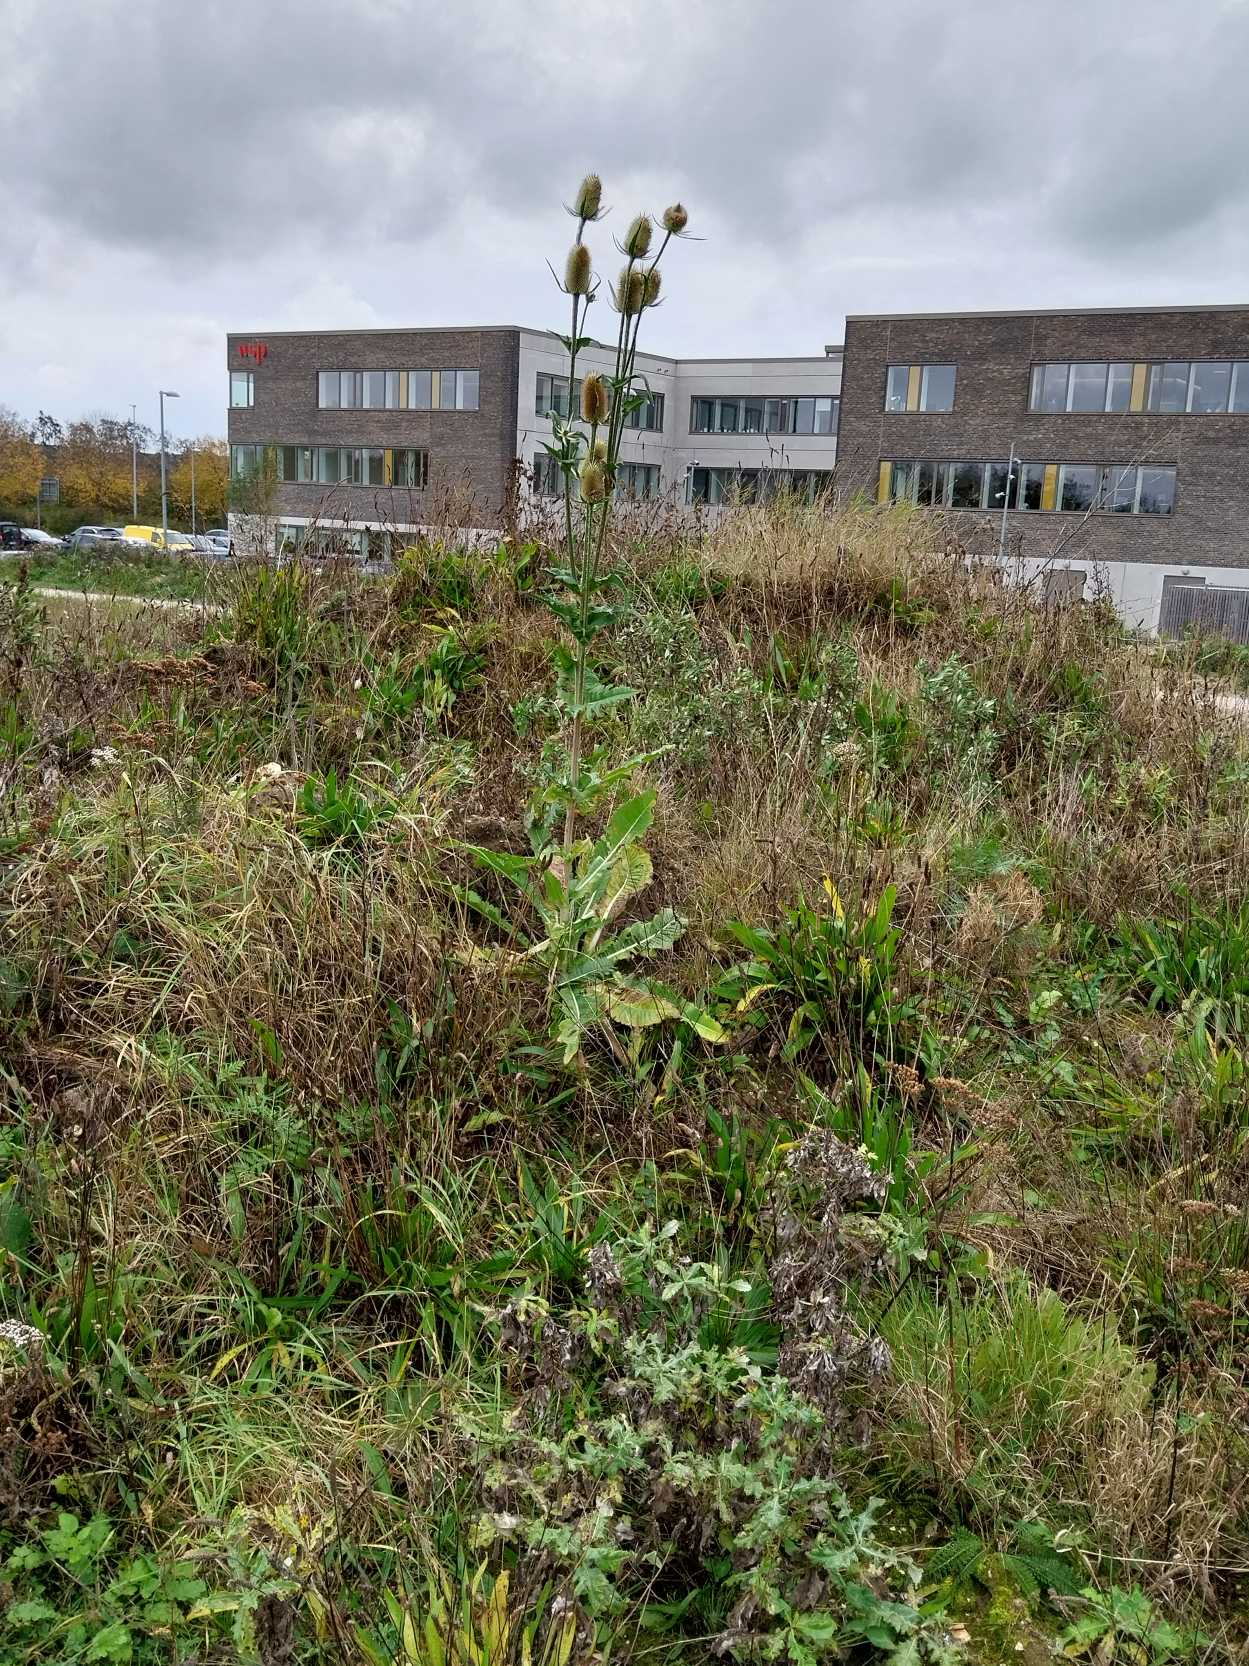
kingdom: Plantae
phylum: Tracheophyta
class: Magnoliopsida
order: Dipsacales
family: Caprifoliaceae
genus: Dipsacus
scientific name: Dipsacus fullonum
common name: Gærde-kartebolle
